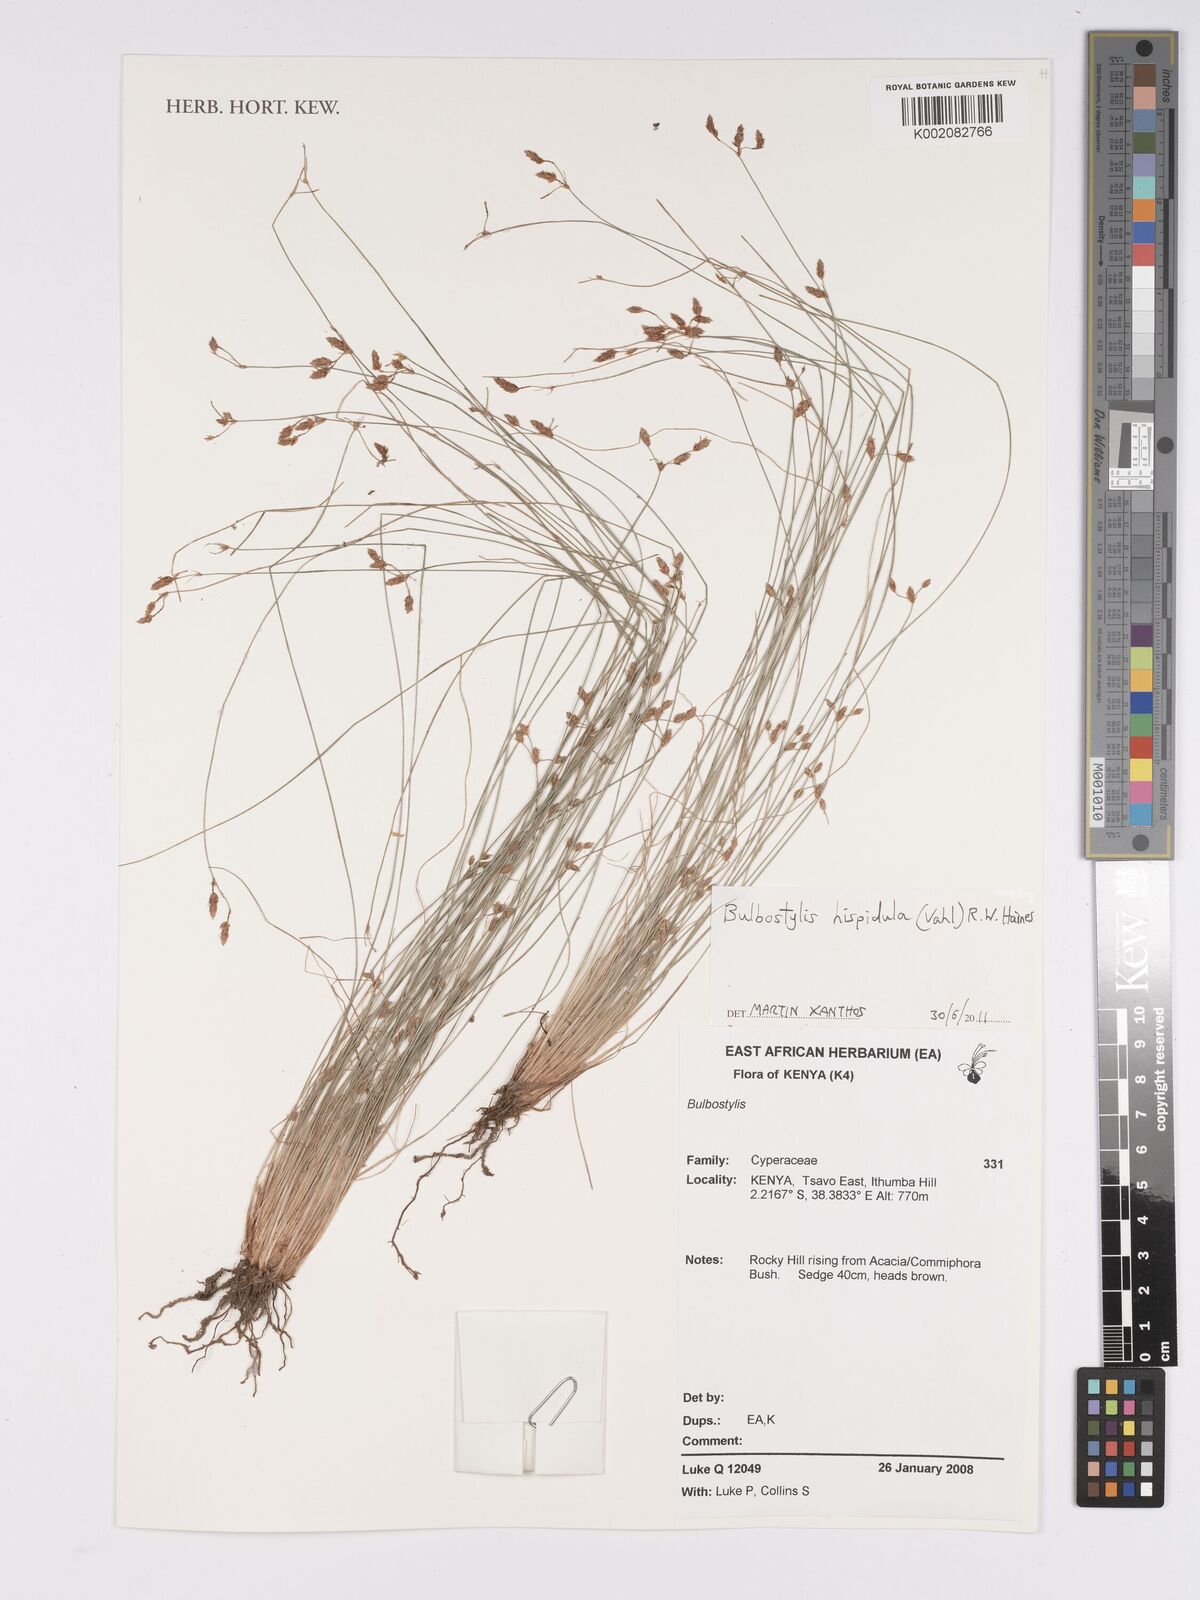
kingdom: Plantae
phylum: Tracheophyta
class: Liliopsida
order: Poales
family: Cyperaceae
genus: Bulbostylis
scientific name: Bulbostylis hispidula
